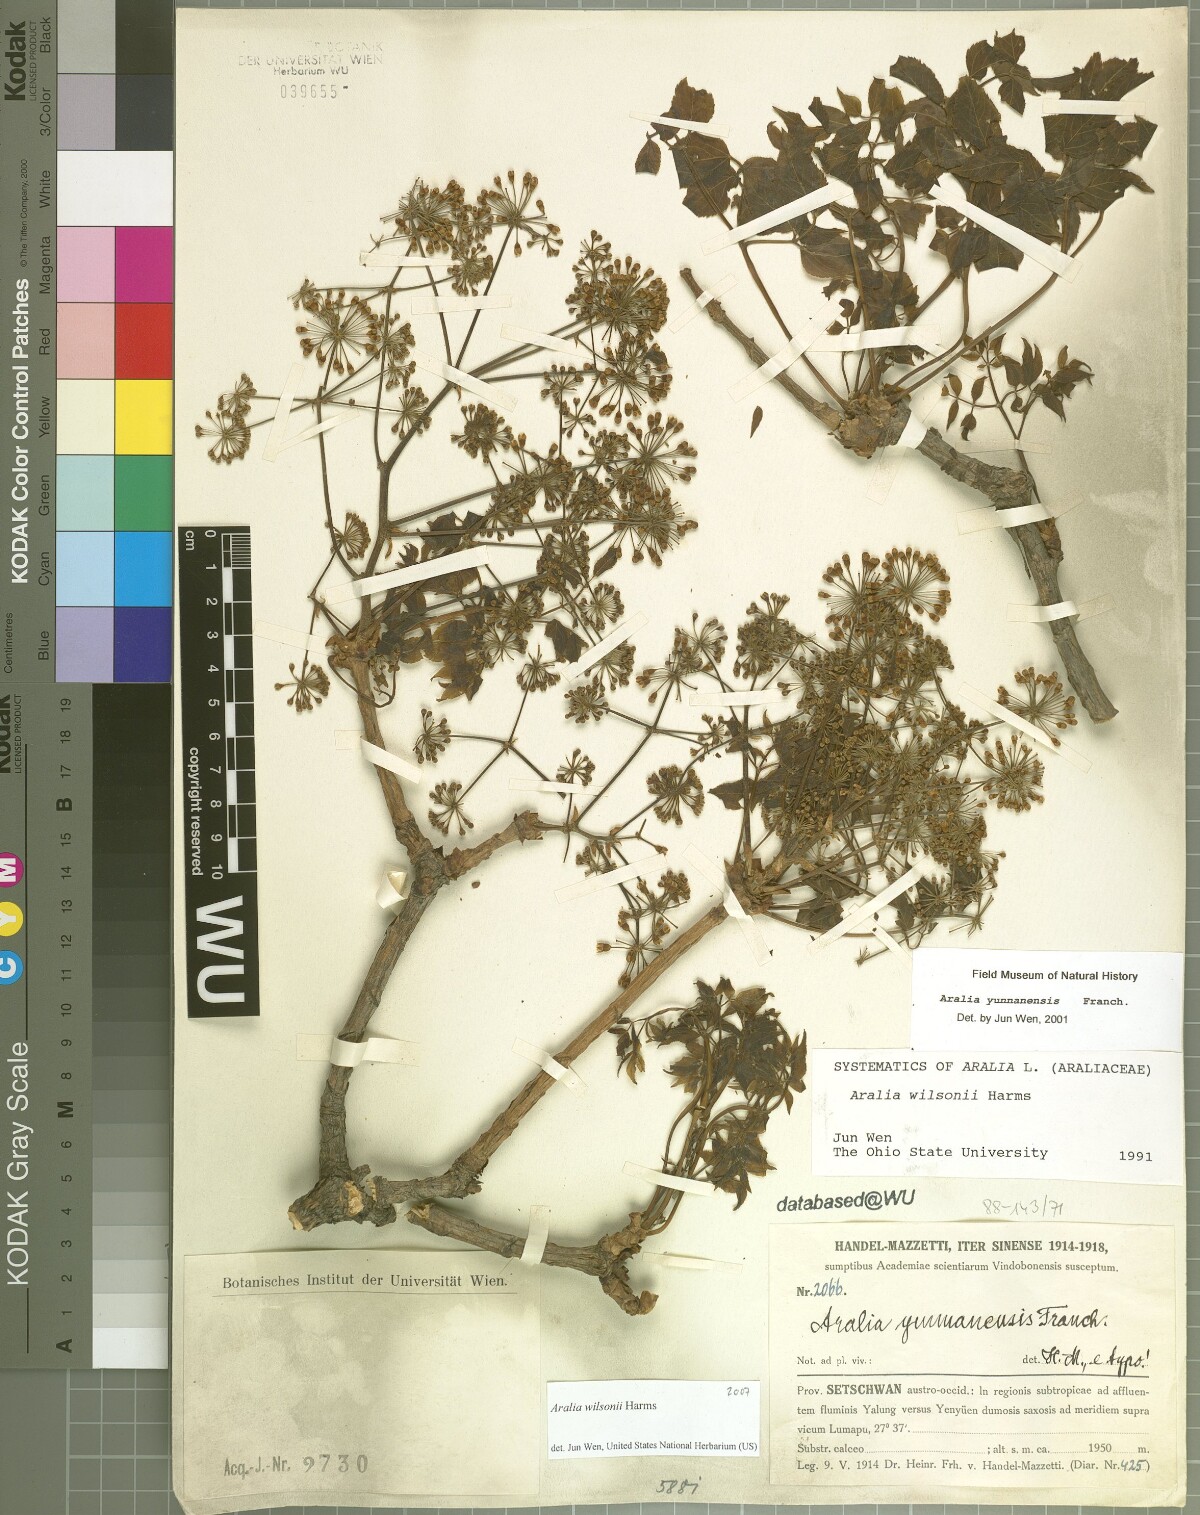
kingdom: Plantae
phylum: Tracheophyta
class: Magnoliopsida
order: Apiales
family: Araliaceae
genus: Aralia
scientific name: Aralia wilsonii
